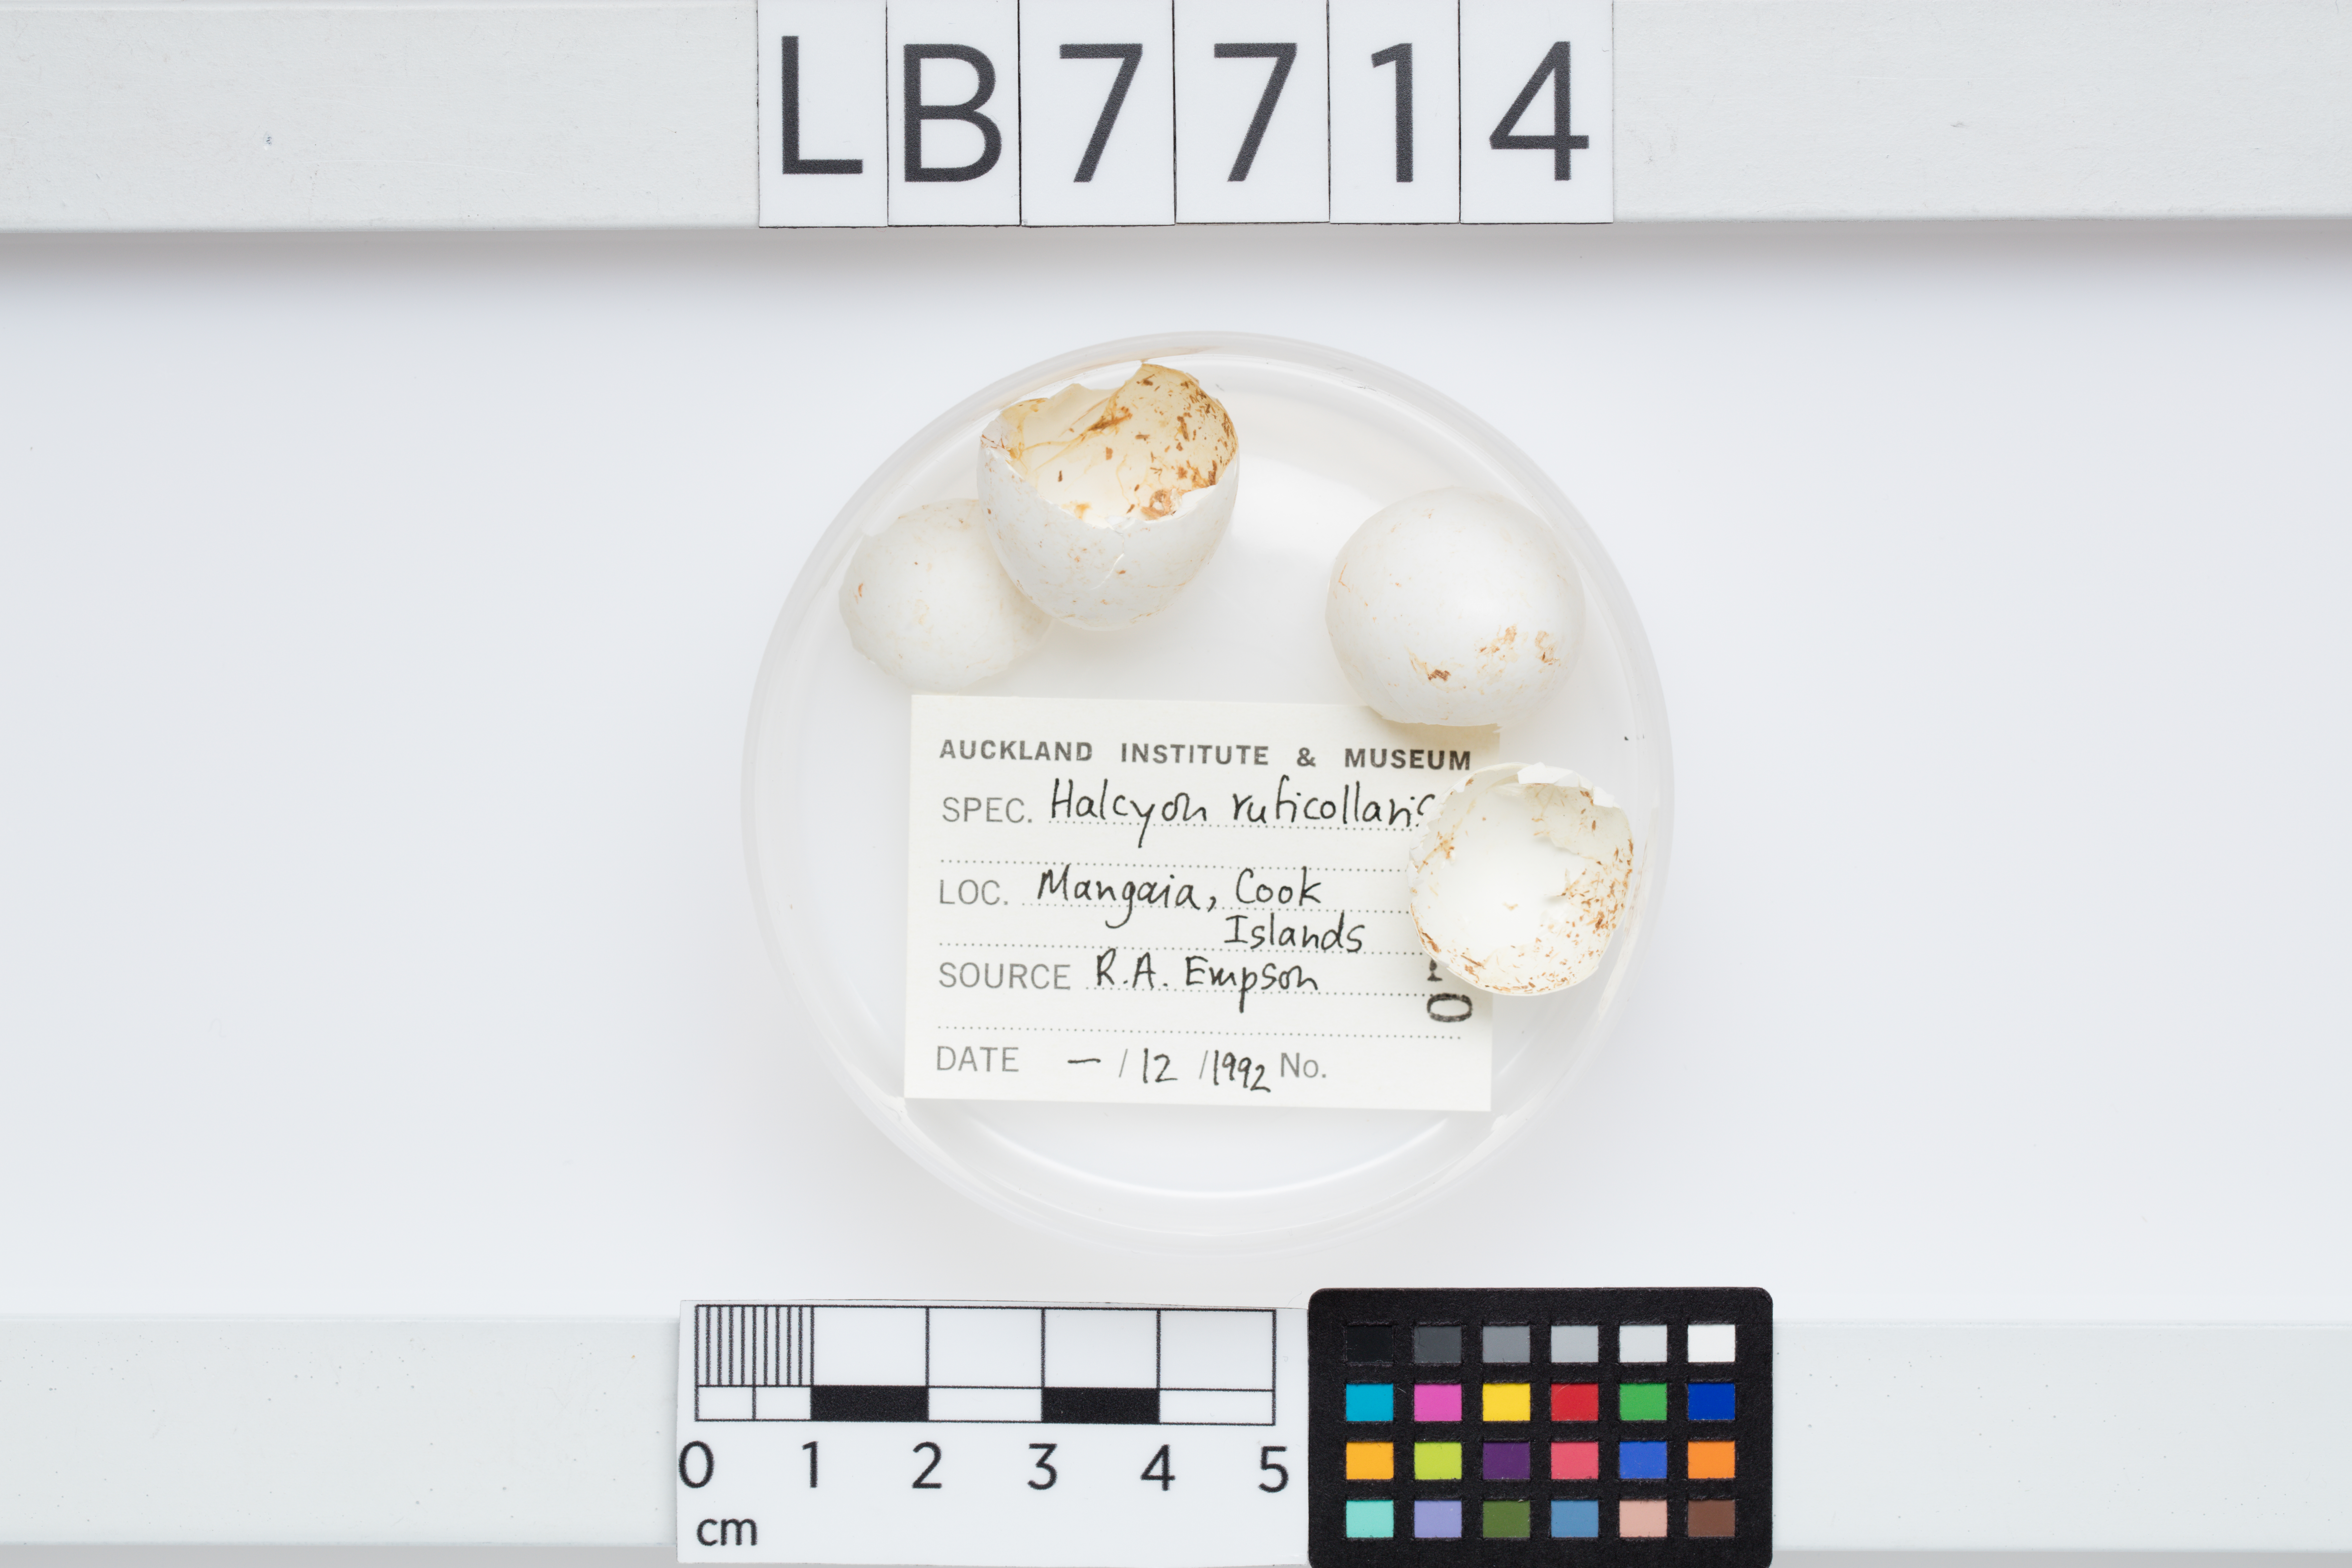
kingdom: Animalia
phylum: Chordata
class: Aves
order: Coraciiformes
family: Alcedinidae
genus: Todiramphus
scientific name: Todiramphus ruficollaris
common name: Mewing kingfisher
